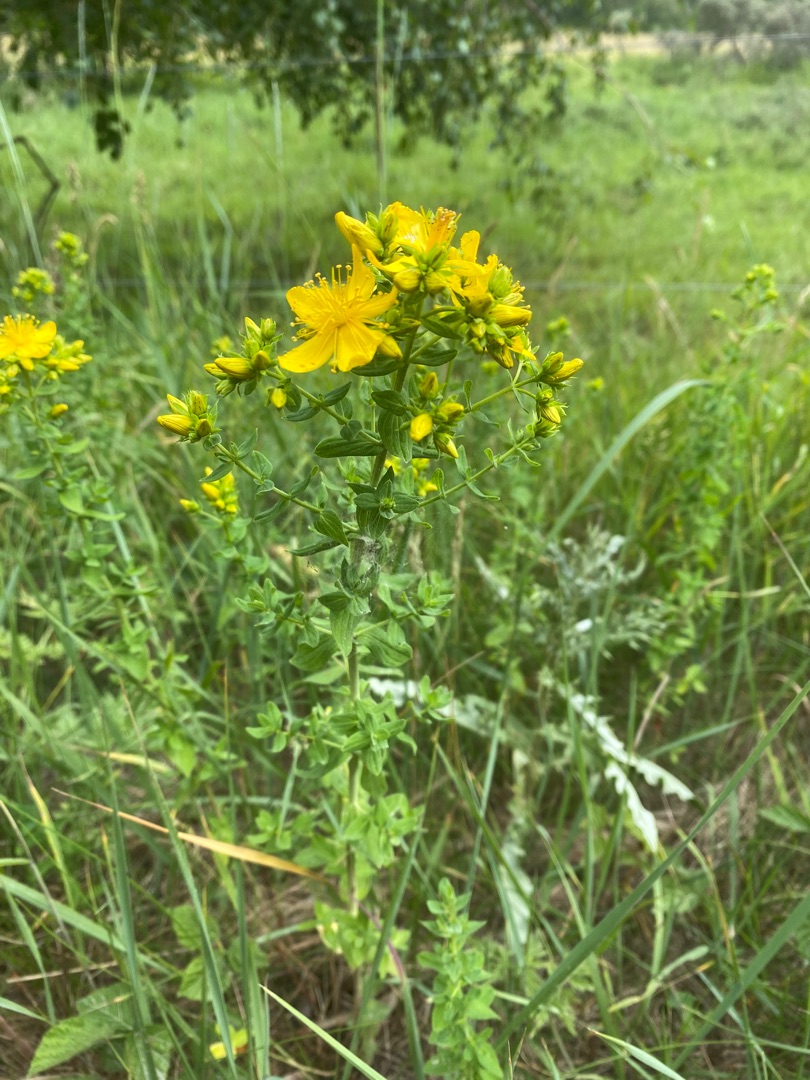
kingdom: Plantae
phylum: Tracheophyta
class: Magnoliopsida
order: Malpighiales
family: Hypericaceae
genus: Hypericum
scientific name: Hypericum perforatum
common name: Prikbladet perikon
